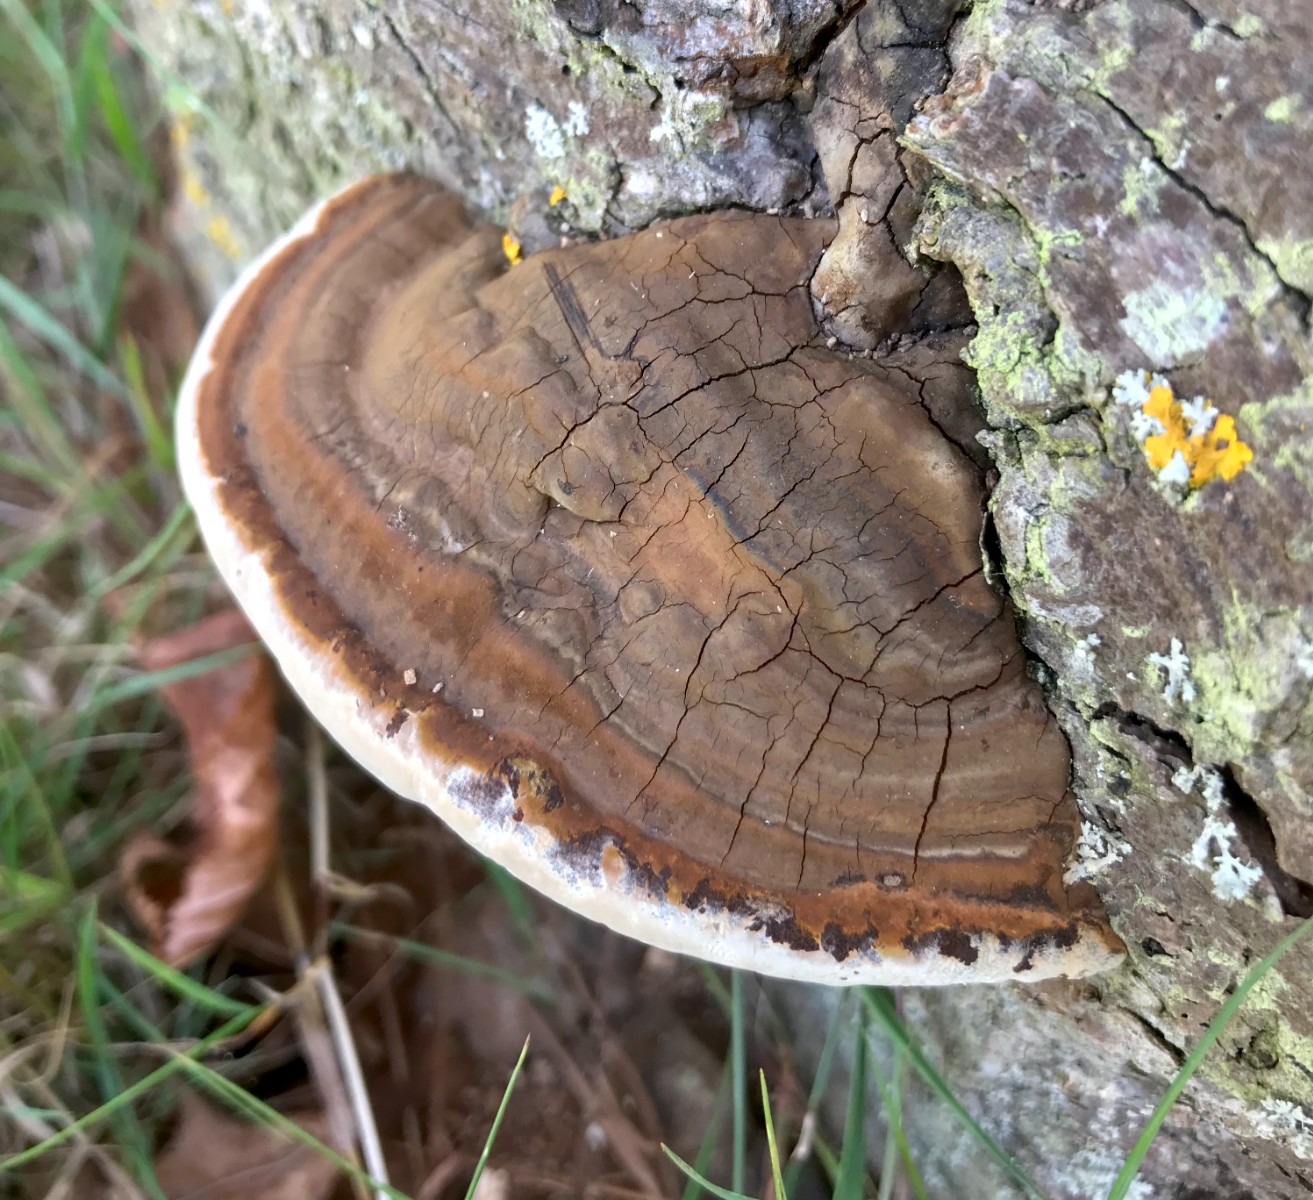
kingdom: Fungi
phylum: Basidiomycota
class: Agaricomycetes
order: Polyporales
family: Polyporaceae
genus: Ganoderma
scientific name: Ganoderma applanatum
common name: flad lakporesvamp
